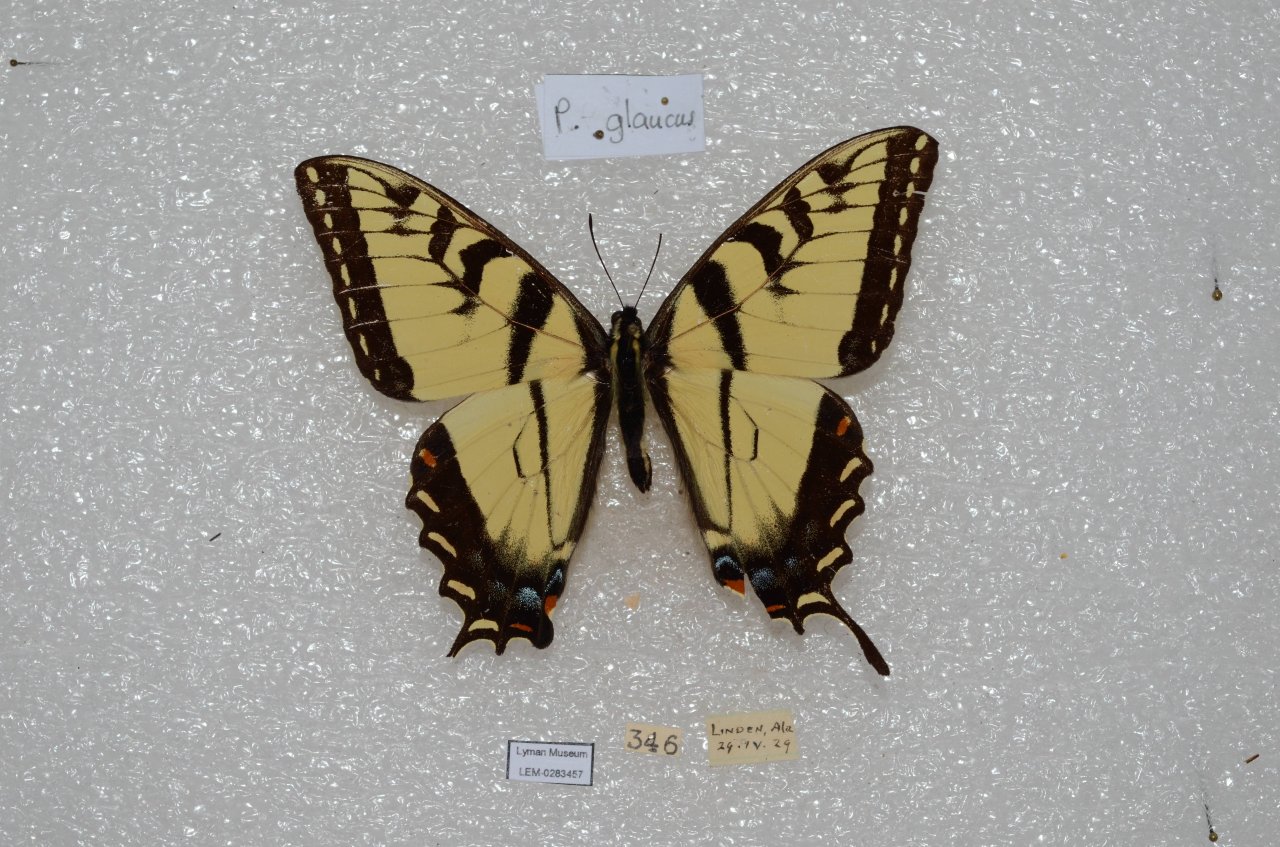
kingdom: Animalia
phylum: Arthropoda
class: Insecta
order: Lepidoptera
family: Papilionidae
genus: Pterourus
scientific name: Pterourus glaucus
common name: Eastern Tiger Swallowtail
